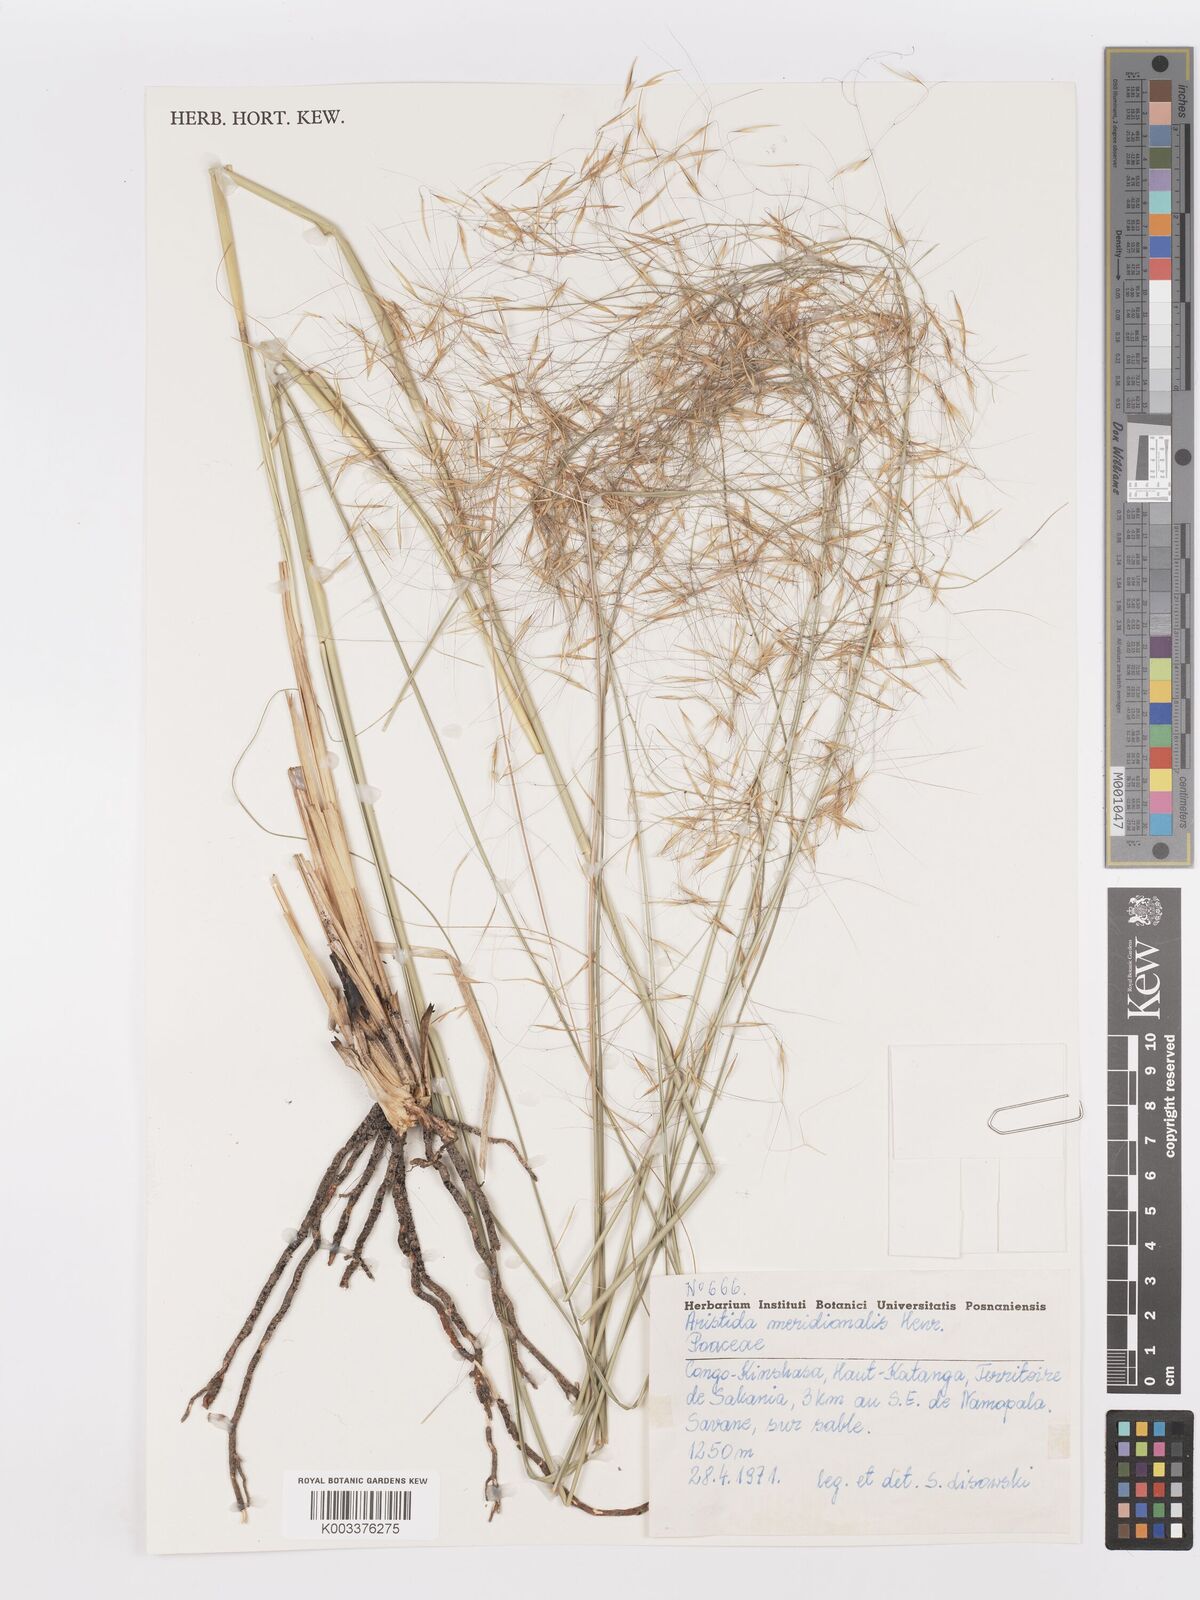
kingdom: Plantae
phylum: Tracheophyta
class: Liliopsida
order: Poales
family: Poaceae
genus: Aristida
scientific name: Aristida meridionalis
